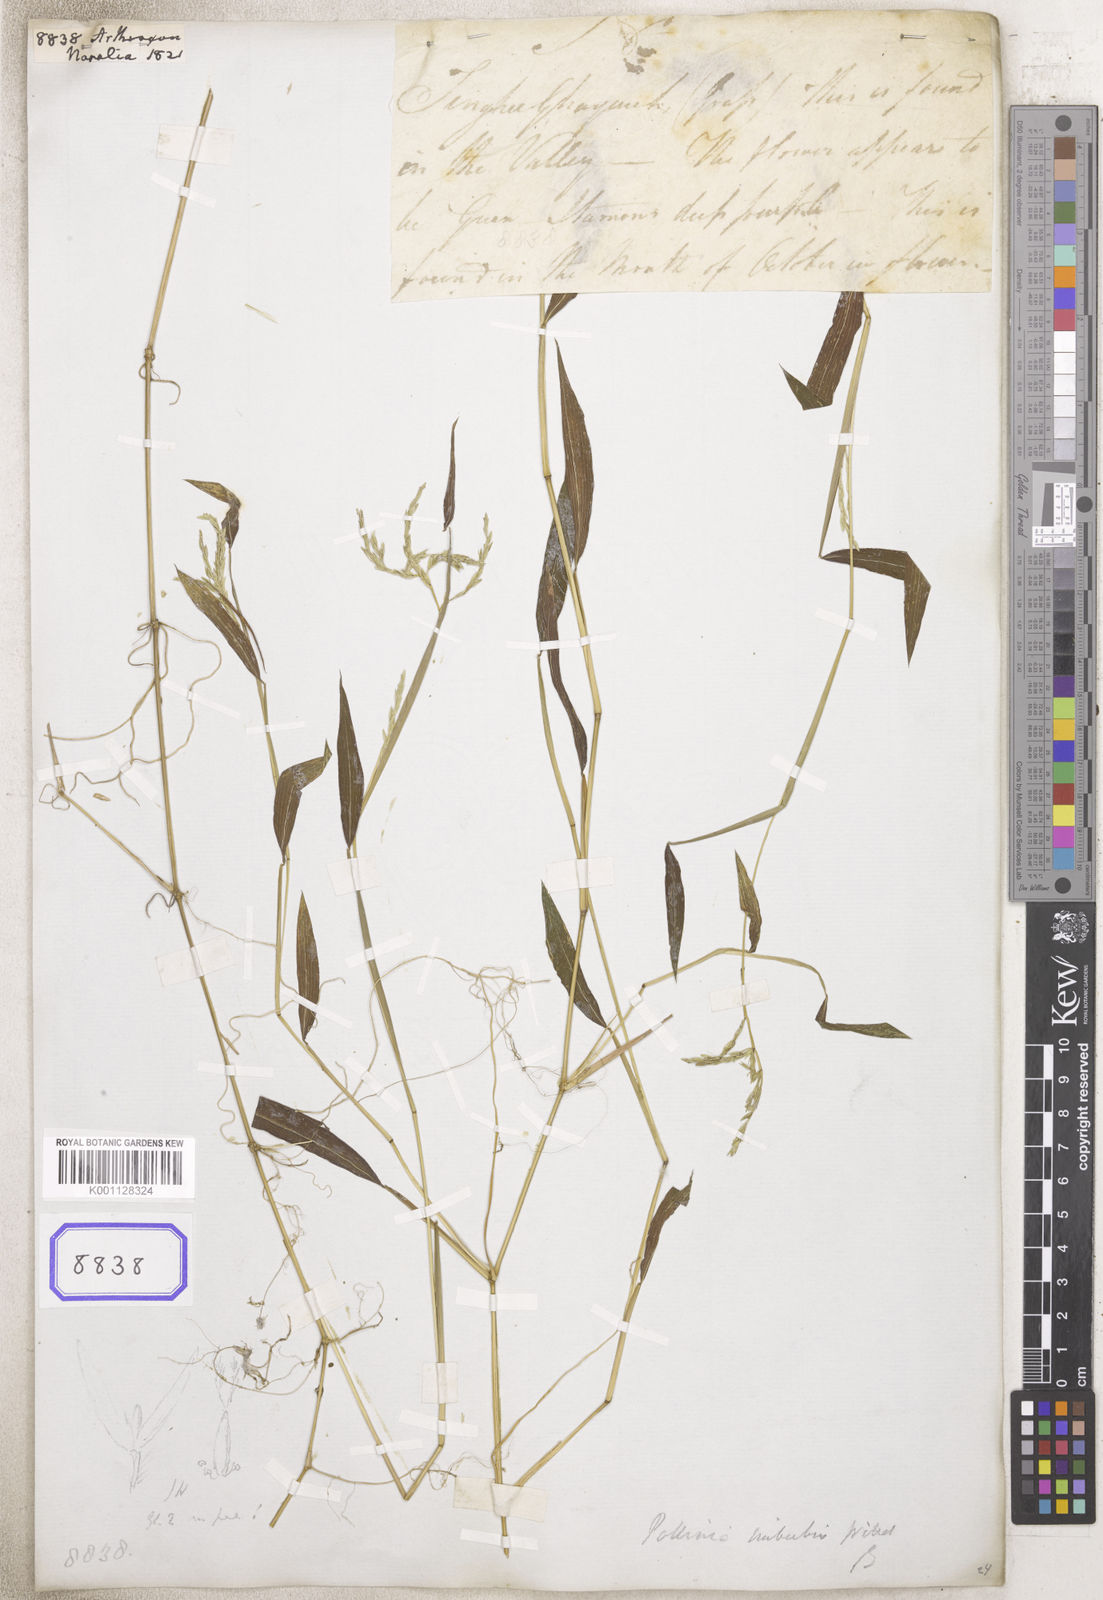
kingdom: Plantae
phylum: Tracheophyta
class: Liliopsida
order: Poales
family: Poaceae
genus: Arthraxon
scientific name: Arthraxon
